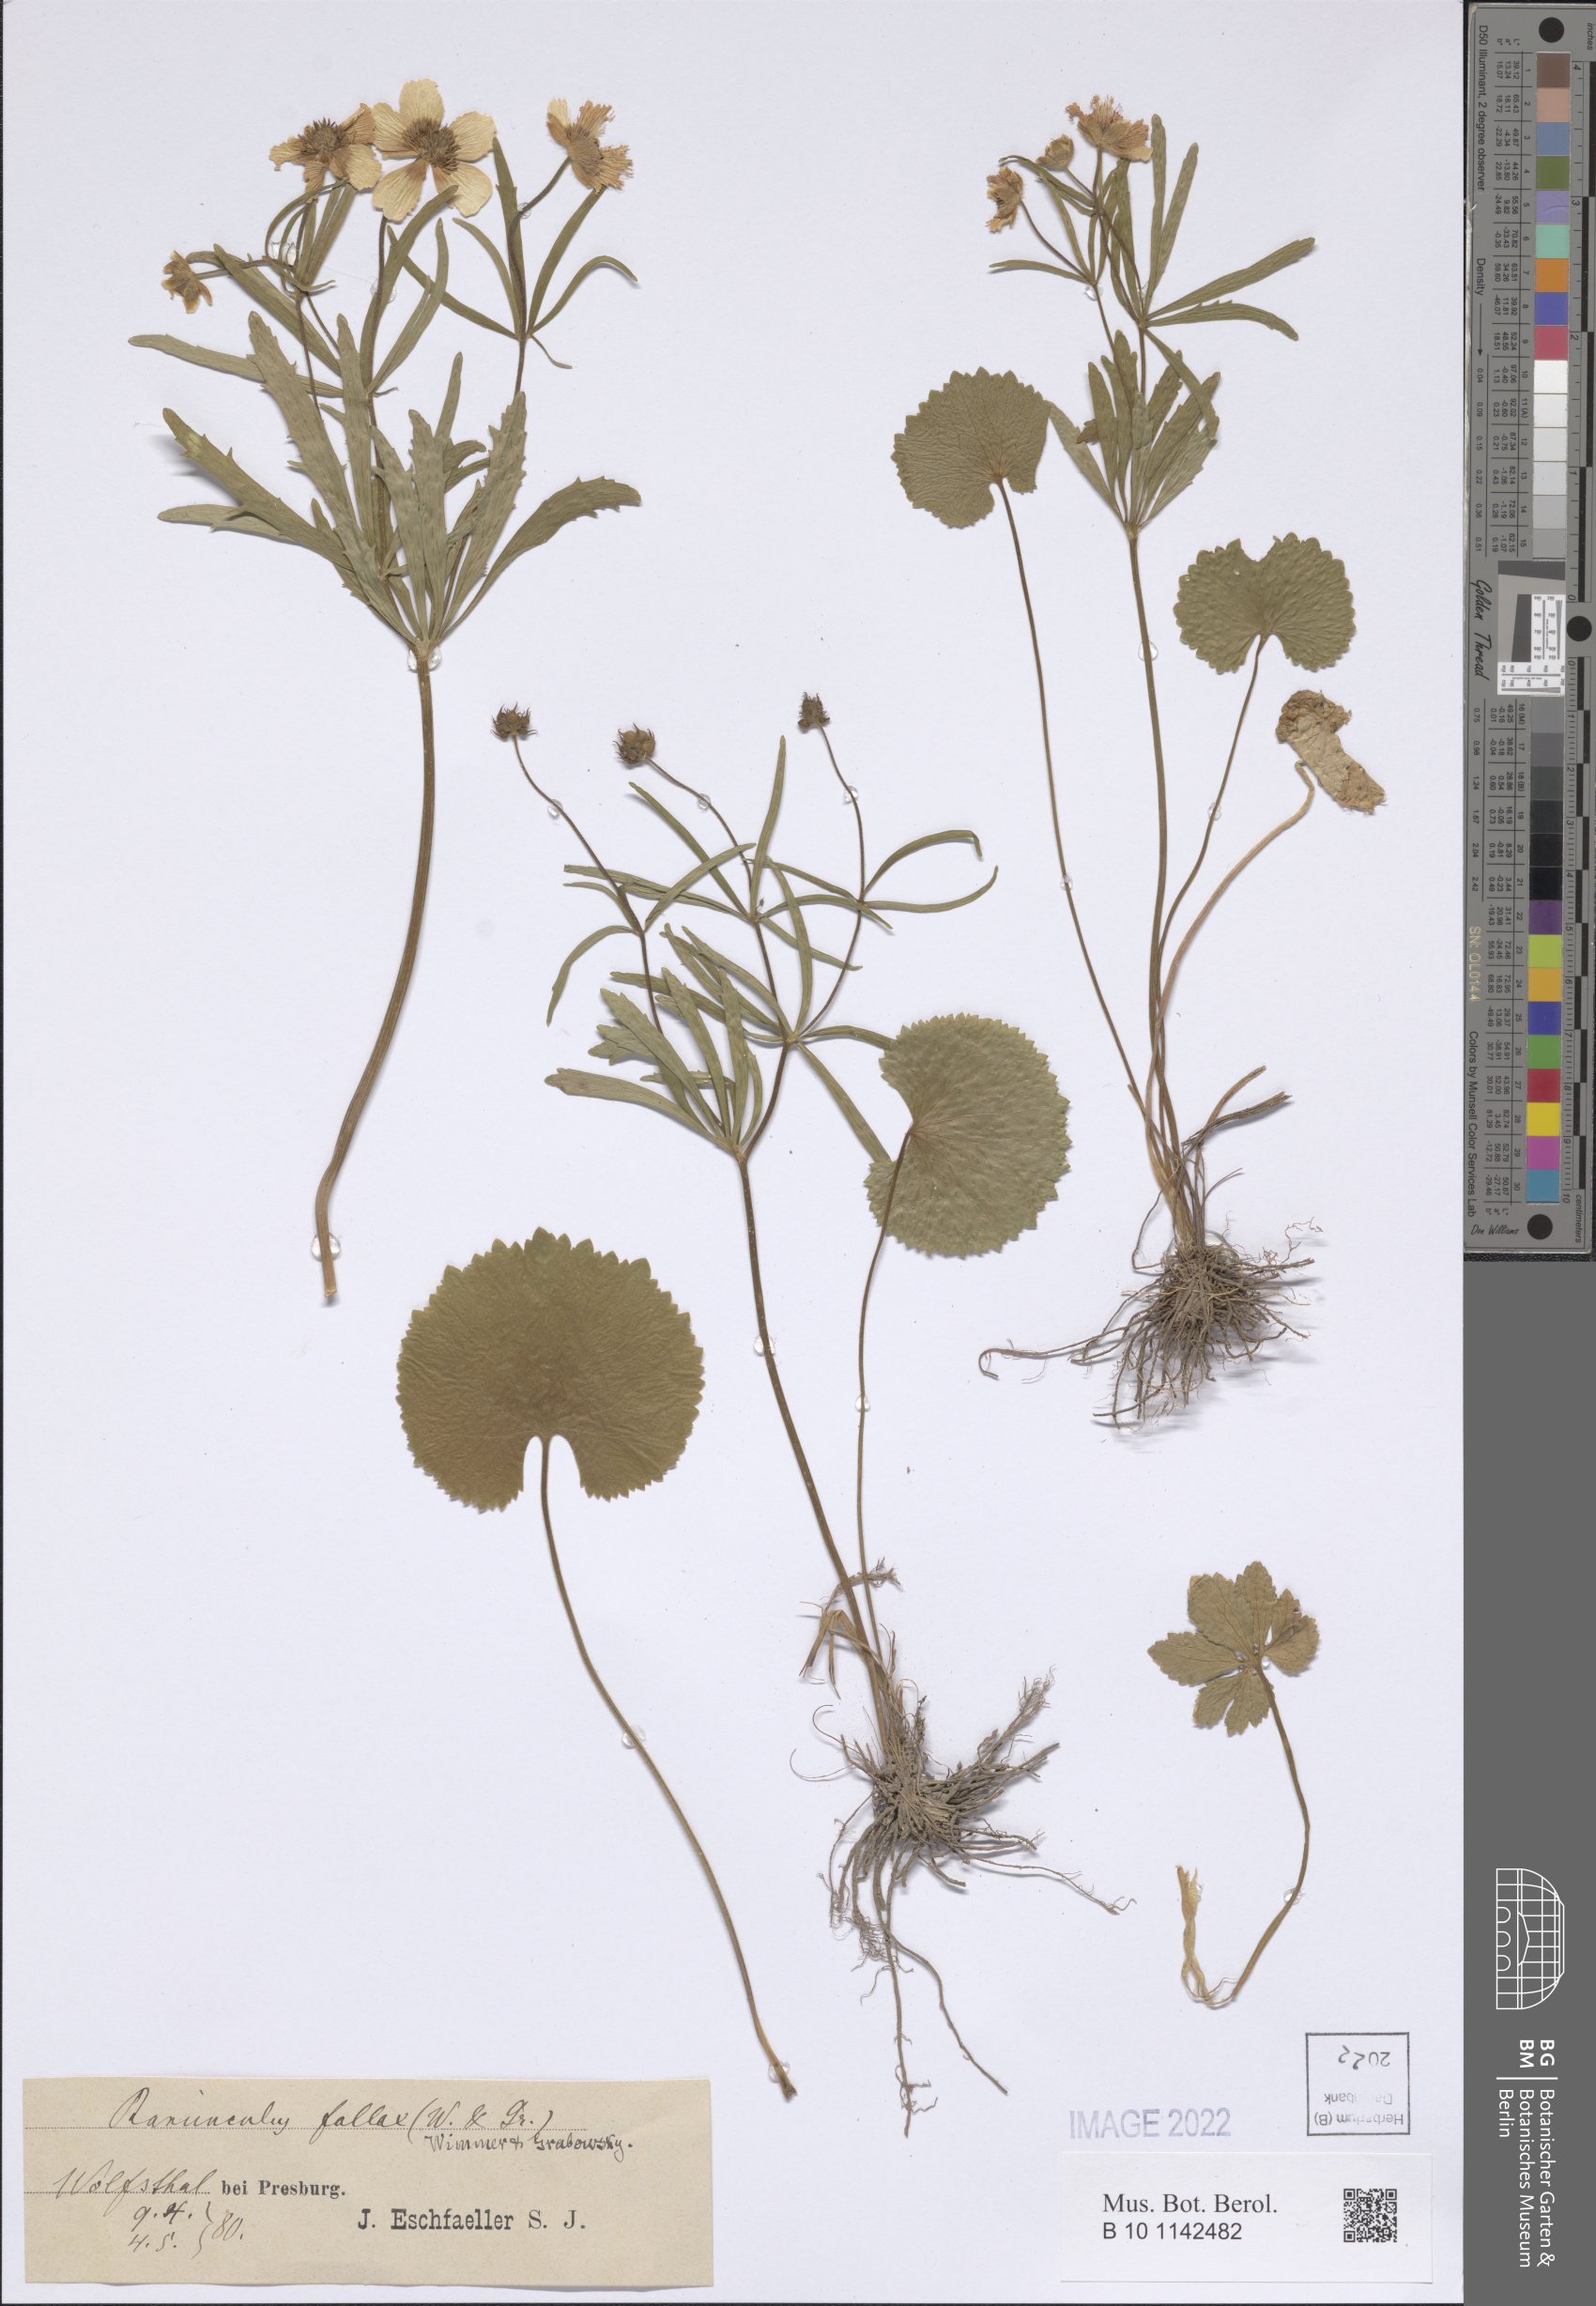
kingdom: Plantae
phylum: Tracheophyta
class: Magnoliopsida
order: Ranunculales
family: Ranunculaceae
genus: Ranunculus
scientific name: Ranunculus fallax
